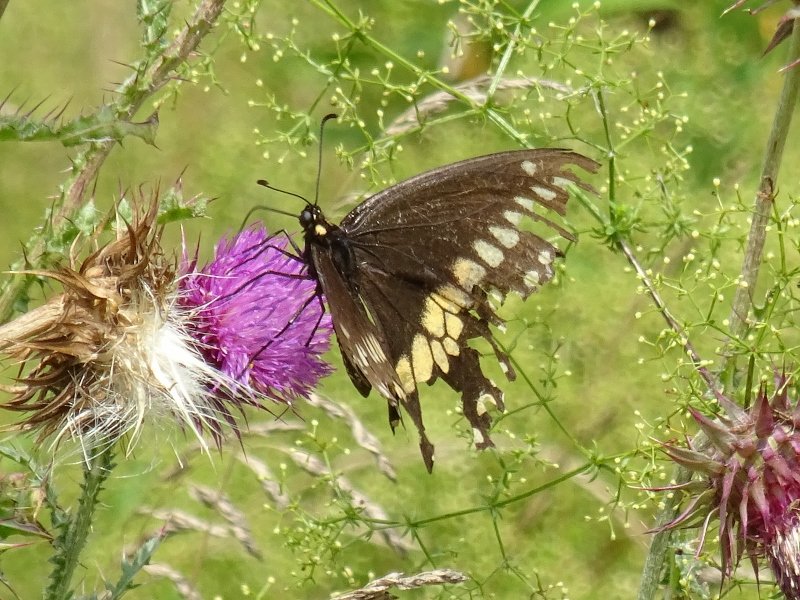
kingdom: Animalia
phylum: Arthropoda
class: Insecta
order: Lepidoptera
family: Papilionidae
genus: Papilio
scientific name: Papilio polyxenes
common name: Black Swallowtail
